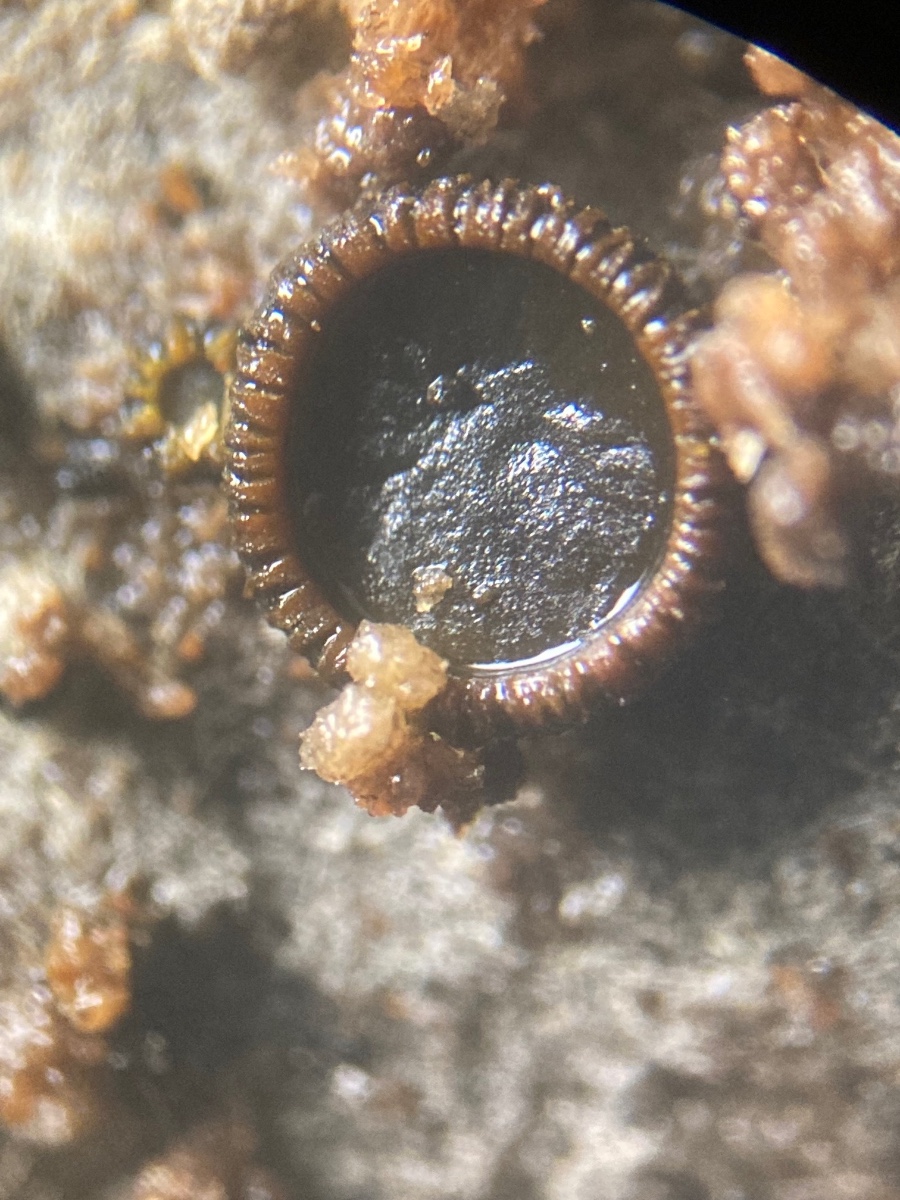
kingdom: Fungi
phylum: Ascomycota
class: Dothideomycetes
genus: Catinella
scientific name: Catinella olivacea
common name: olivenskive
